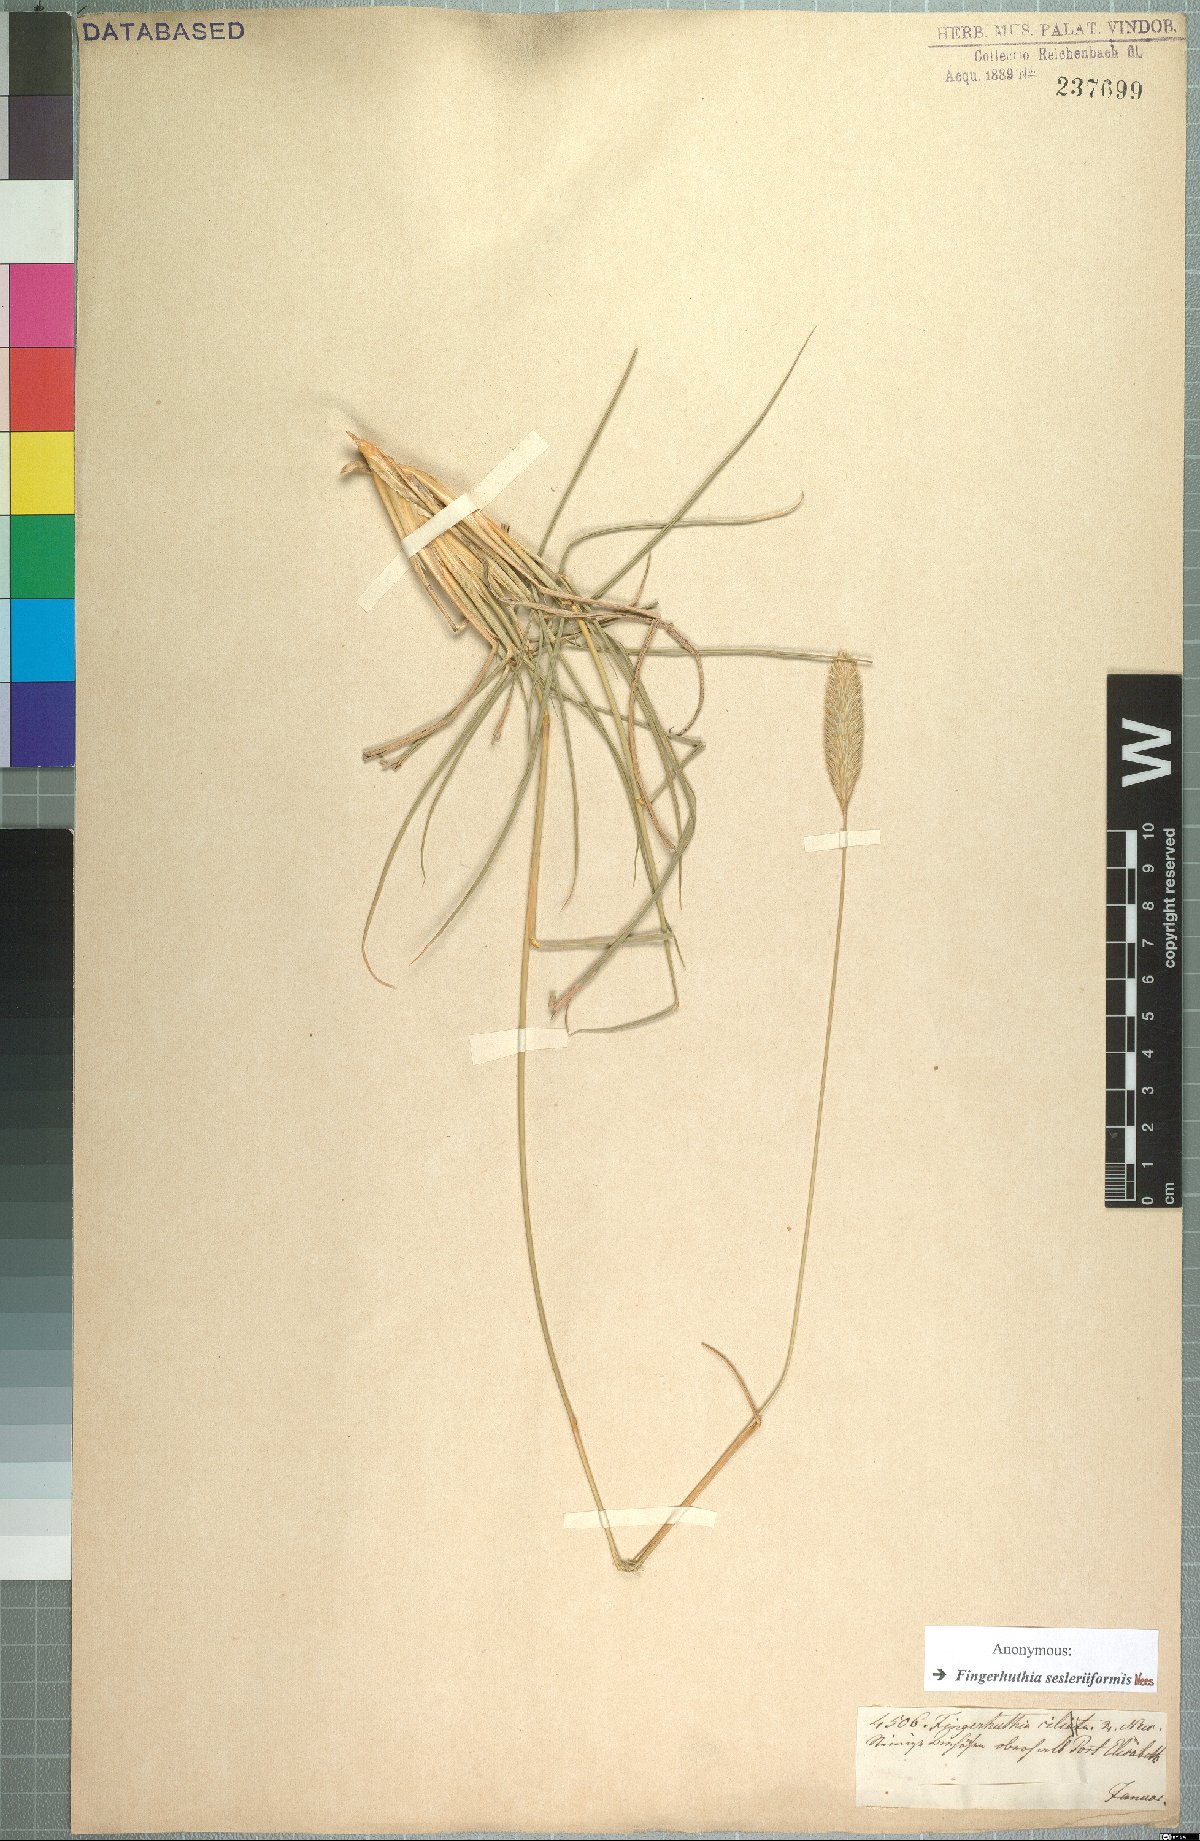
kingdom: Plantae
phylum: Tracheophyta
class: Liliopsida
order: Poales
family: Poaceae
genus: Fingerhuthia
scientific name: Fingerhuthia sesleriiformis
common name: Thimble grass
